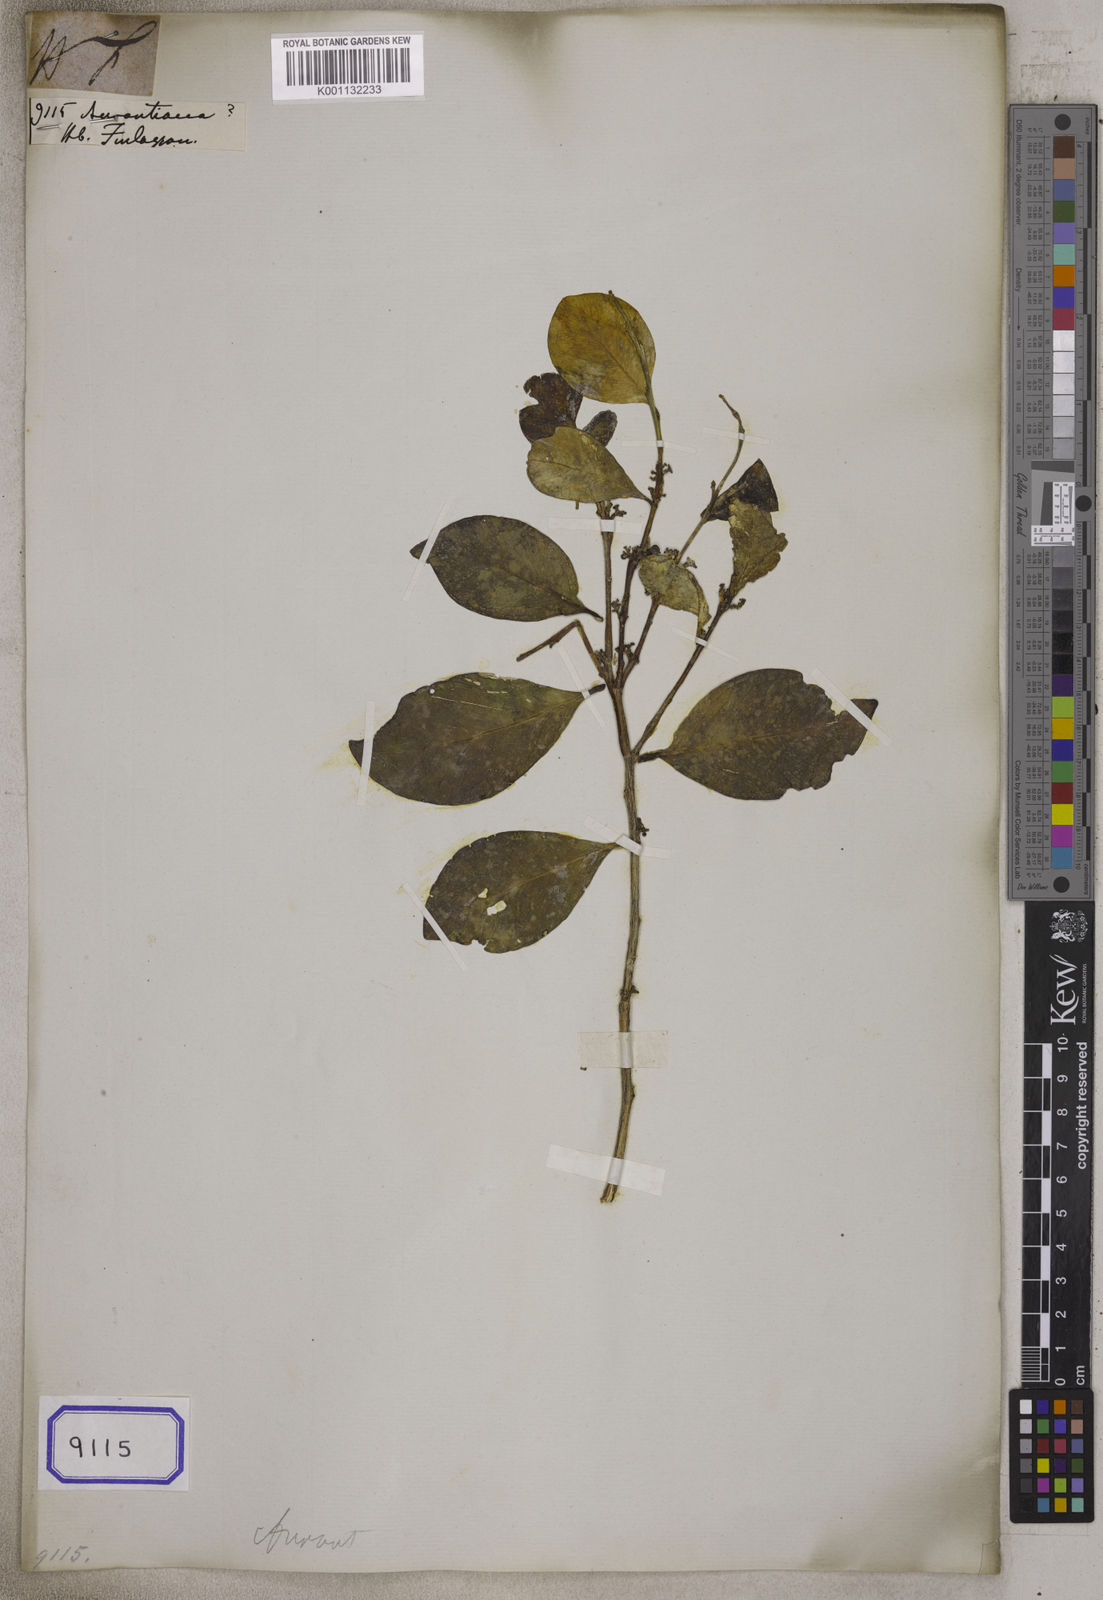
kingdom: Plantae
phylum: Tracheophyta
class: Magnoliopsida
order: Sapindales
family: Rutaceae
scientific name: Rutaceae
